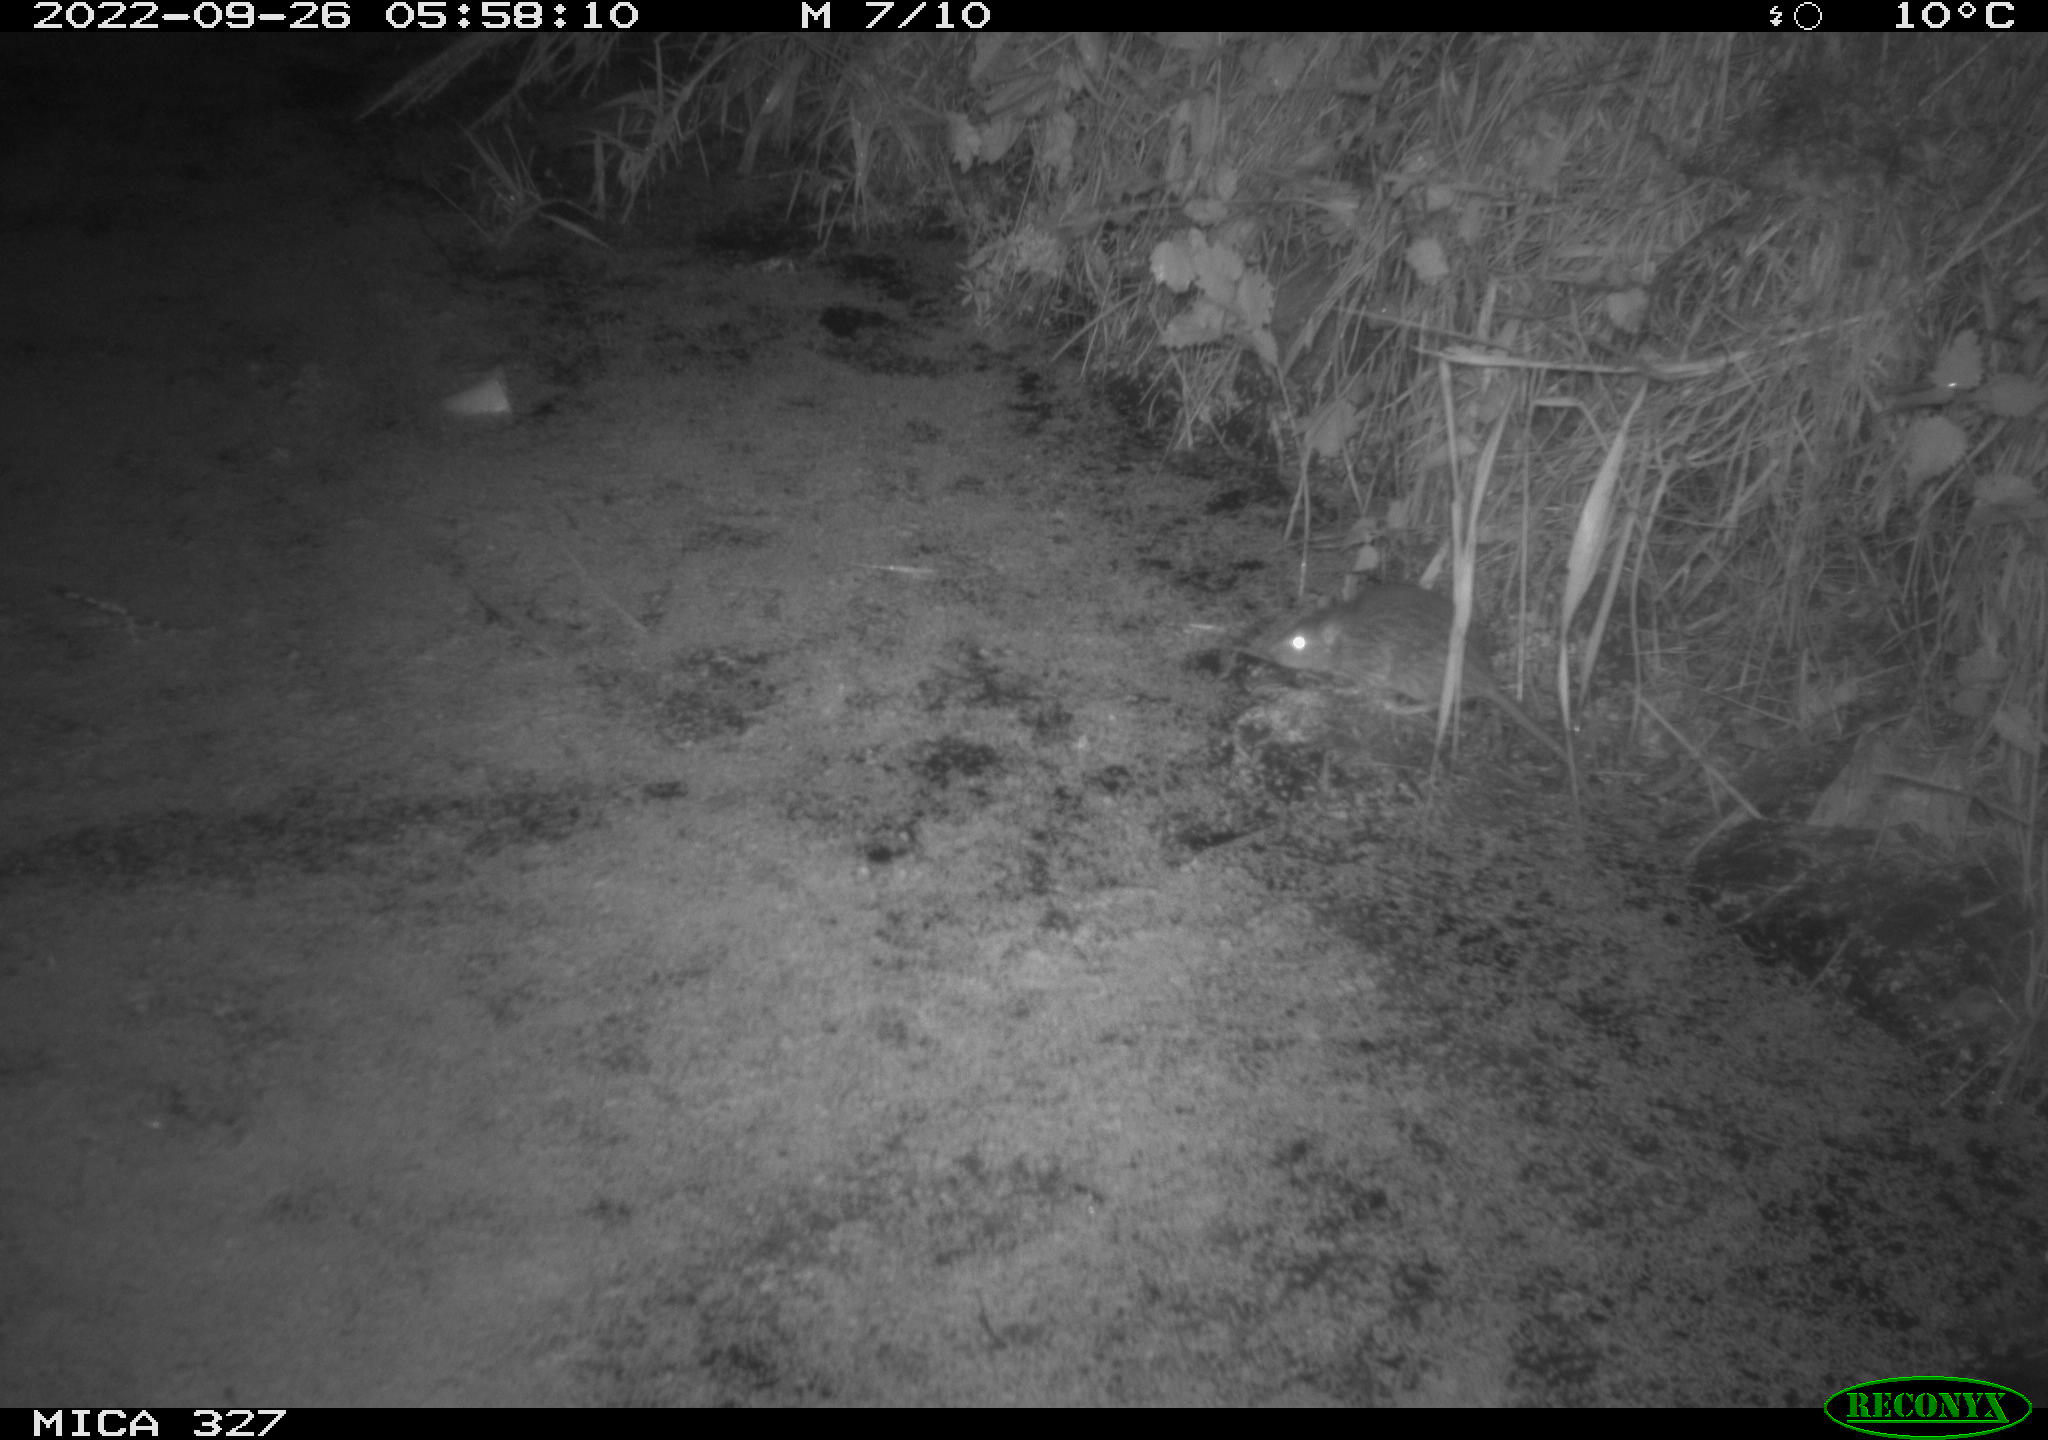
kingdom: Animalia
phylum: Chordata
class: Mammalia
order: Rodentia
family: Muridae
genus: Rattus
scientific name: Rattus norvegicus
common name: Brown rat
